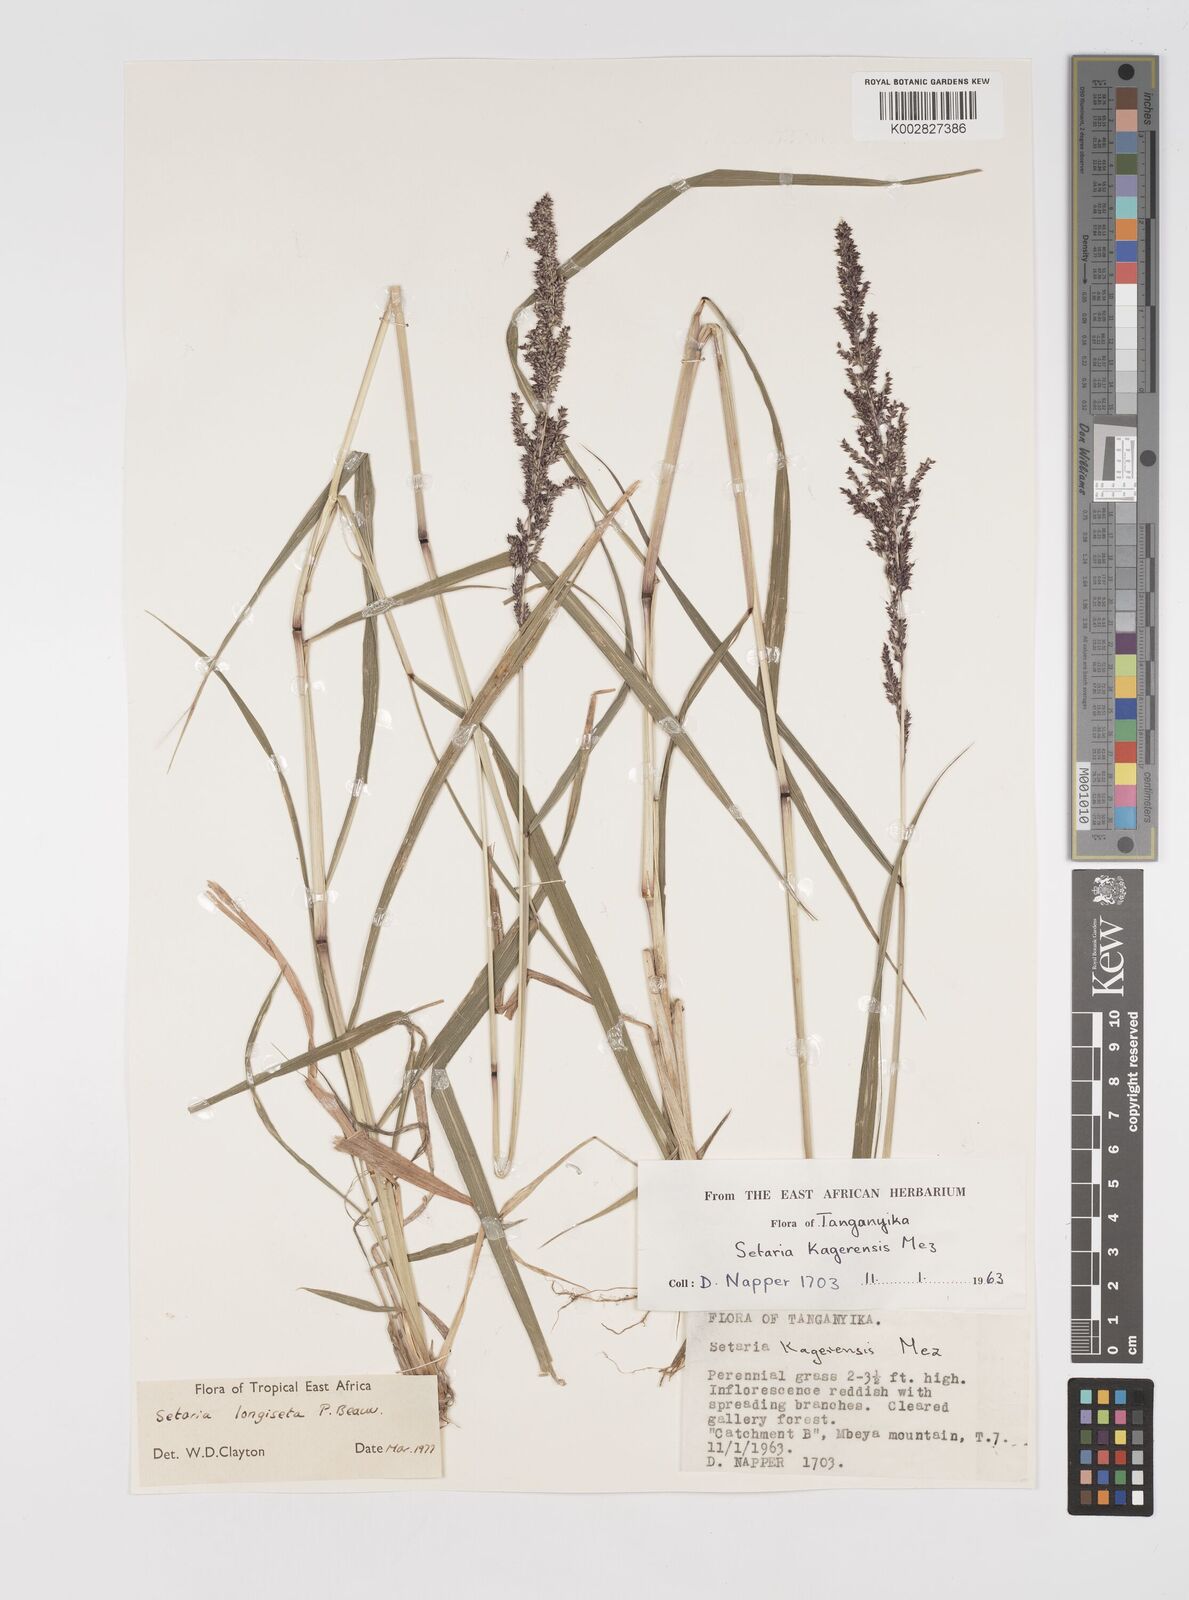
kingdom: Plantae
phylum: Tracheophyta
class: Liliopsida
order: Poales
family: Poaceae
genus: Setaria
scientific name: Setaria longiseta
